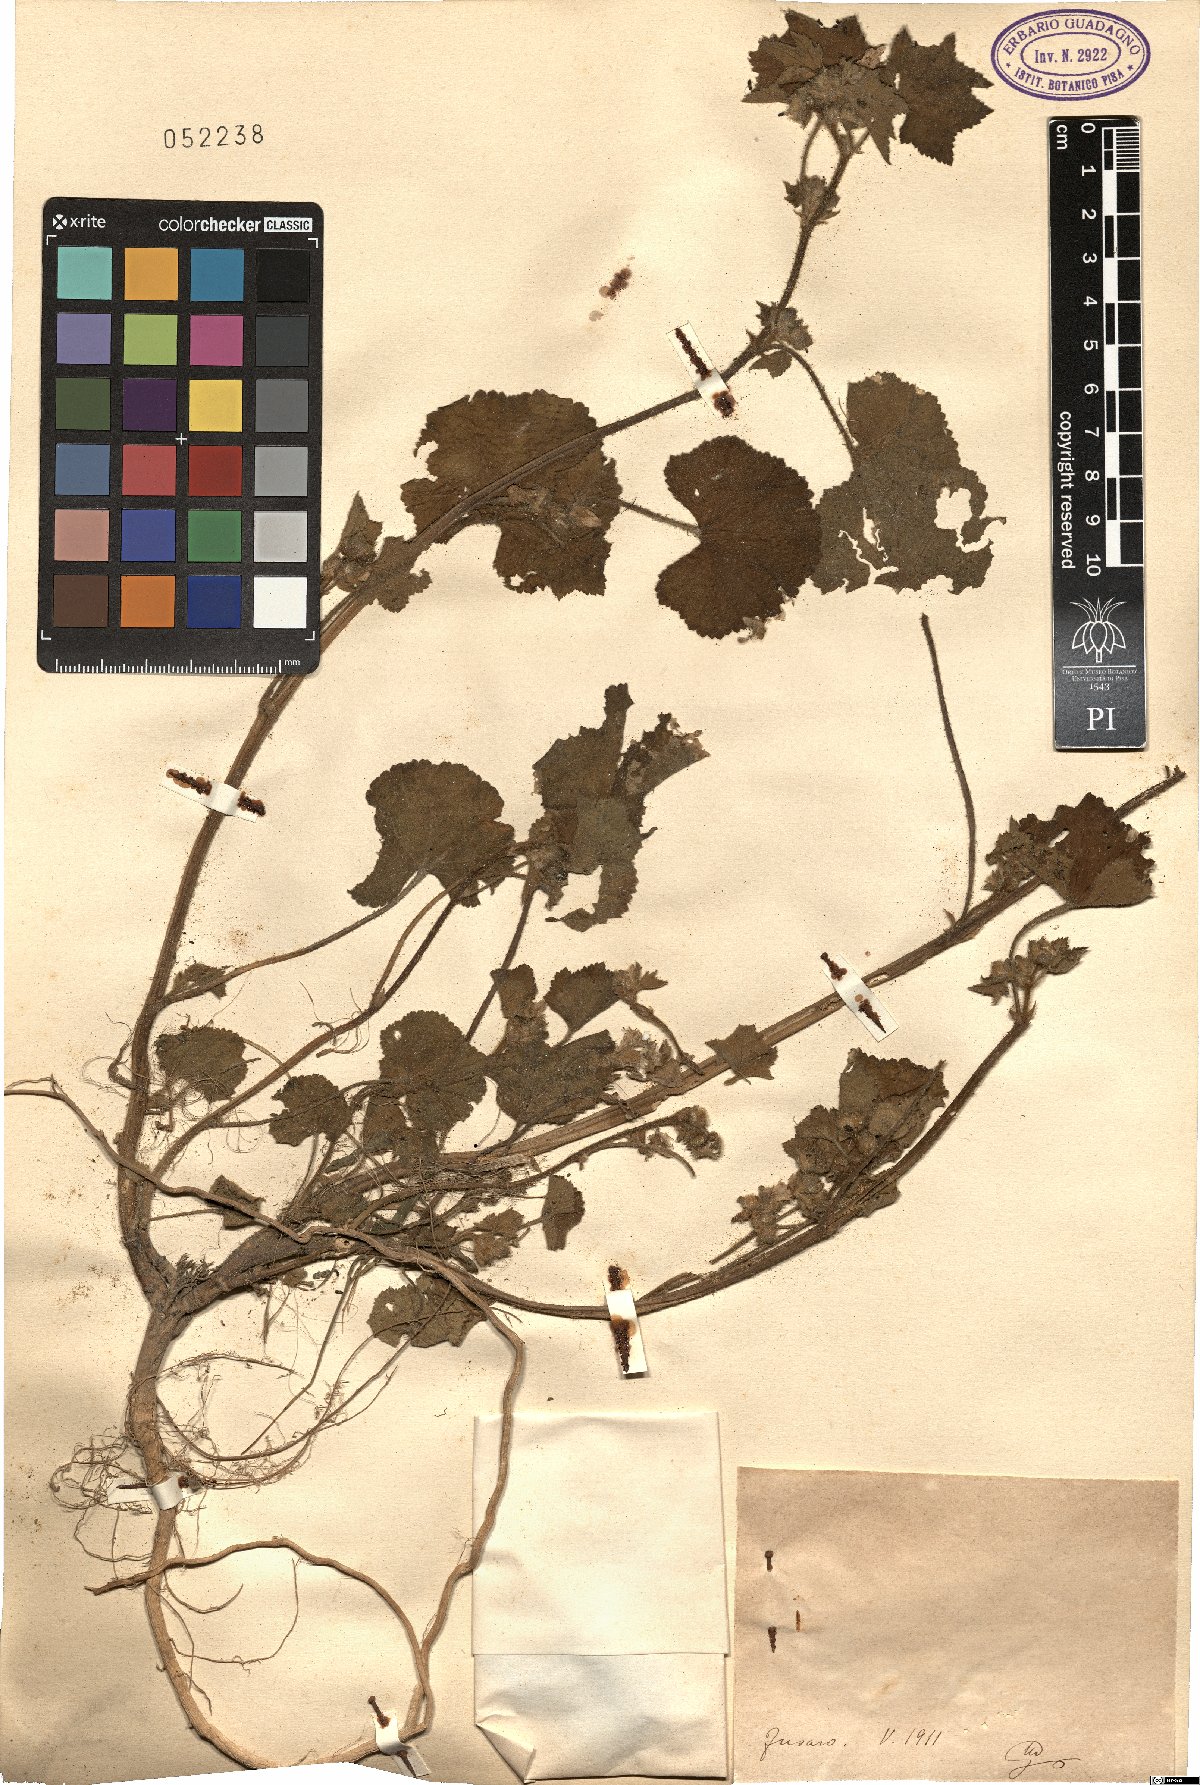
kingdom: Plantae
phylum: Tracheophyta
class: Magnoliopsida
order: Malvales
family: Malvaceae
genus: Malva
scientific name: Malva
